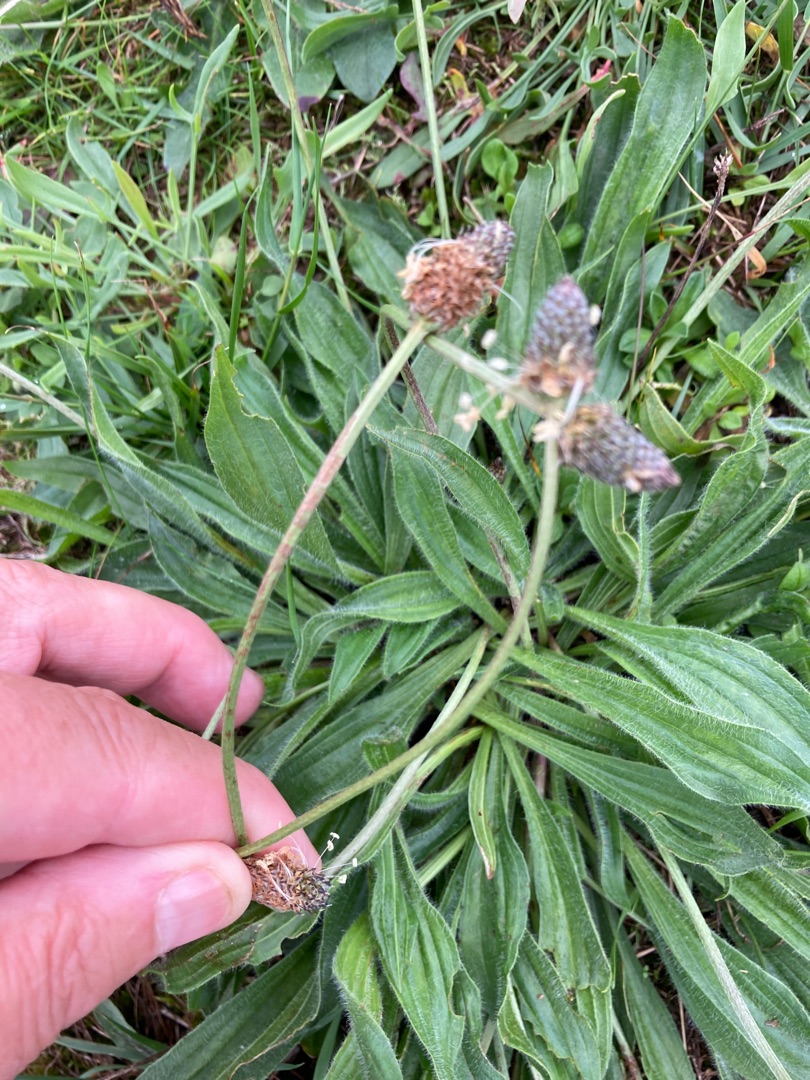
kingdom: Plantae
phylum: Tracheophyta
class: Magnoliopsida
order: Lamiales
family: Plantaginaceae
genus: Plantago
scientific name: Plantago lanceolata
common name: Lancet-vejbred
